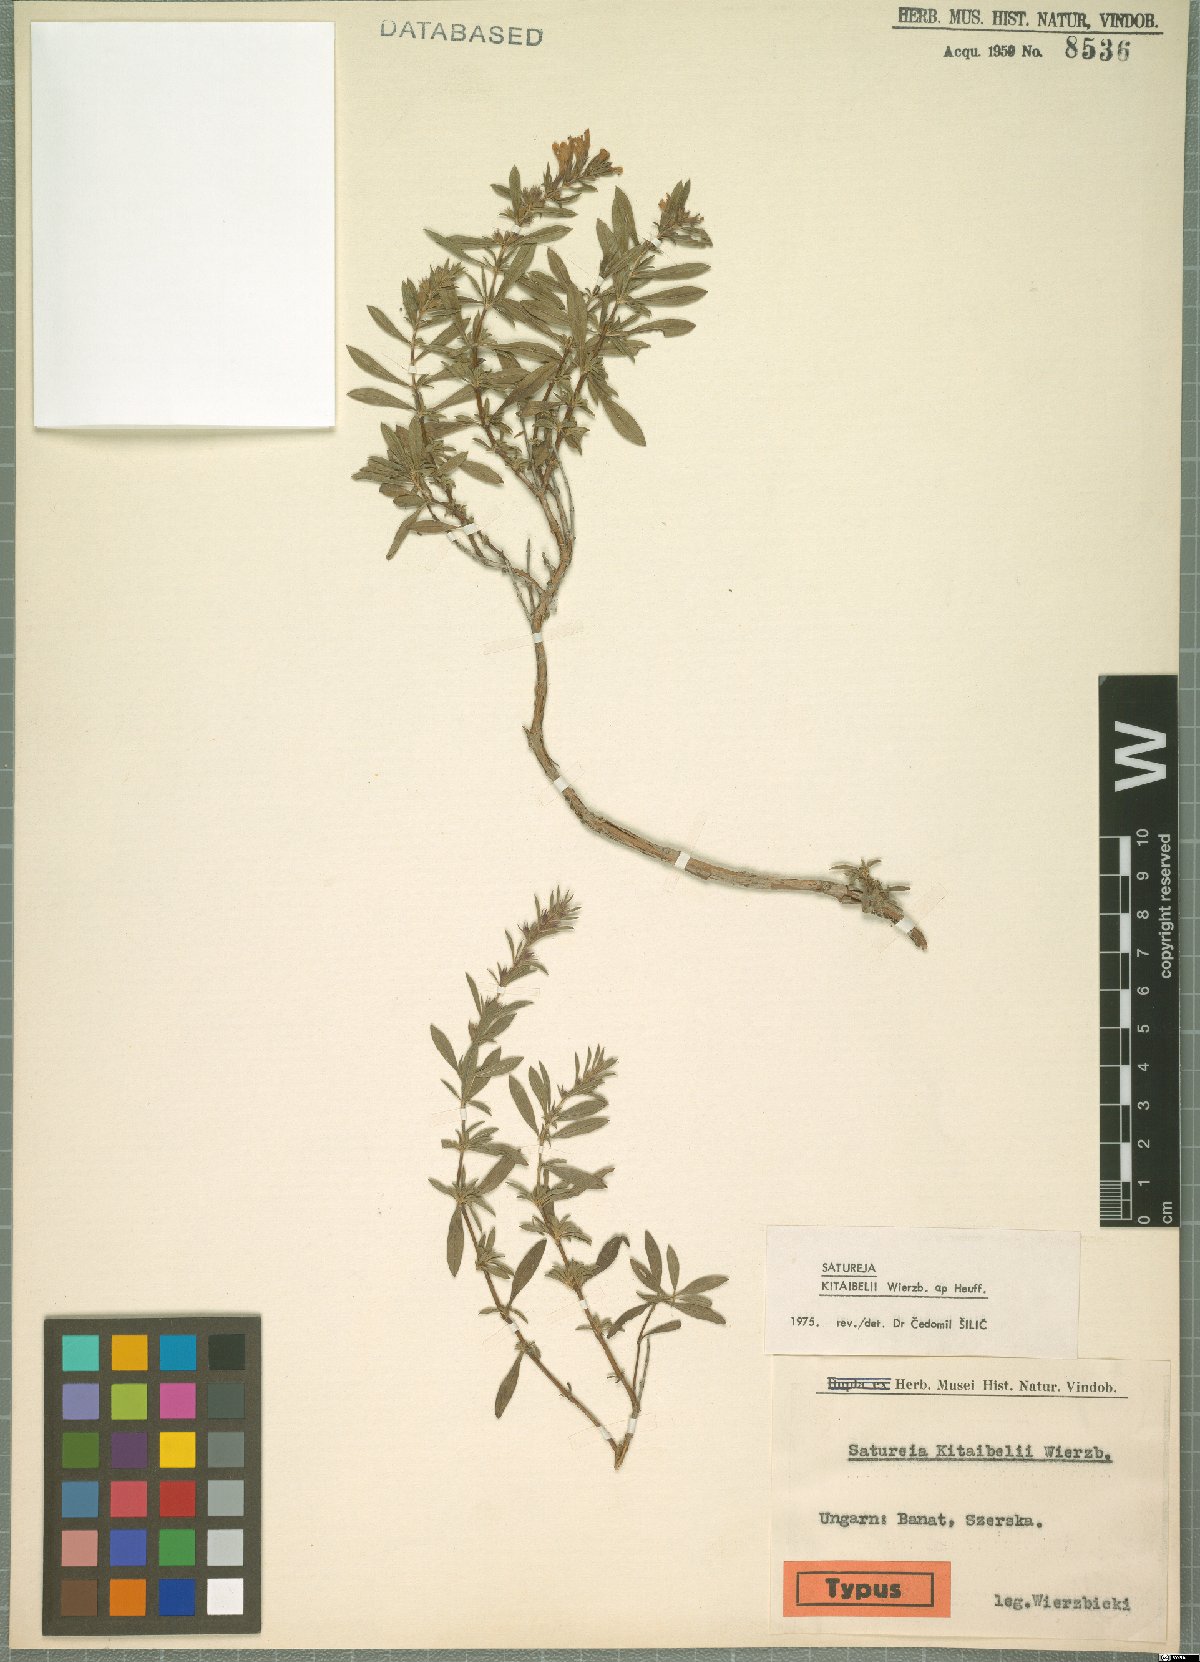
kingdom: Plantae
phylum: Tracheophyta
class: Magnoliopsida
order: Lamiales
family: Lamiaceae
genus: Satureja
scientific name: Satureja kitaibelii
